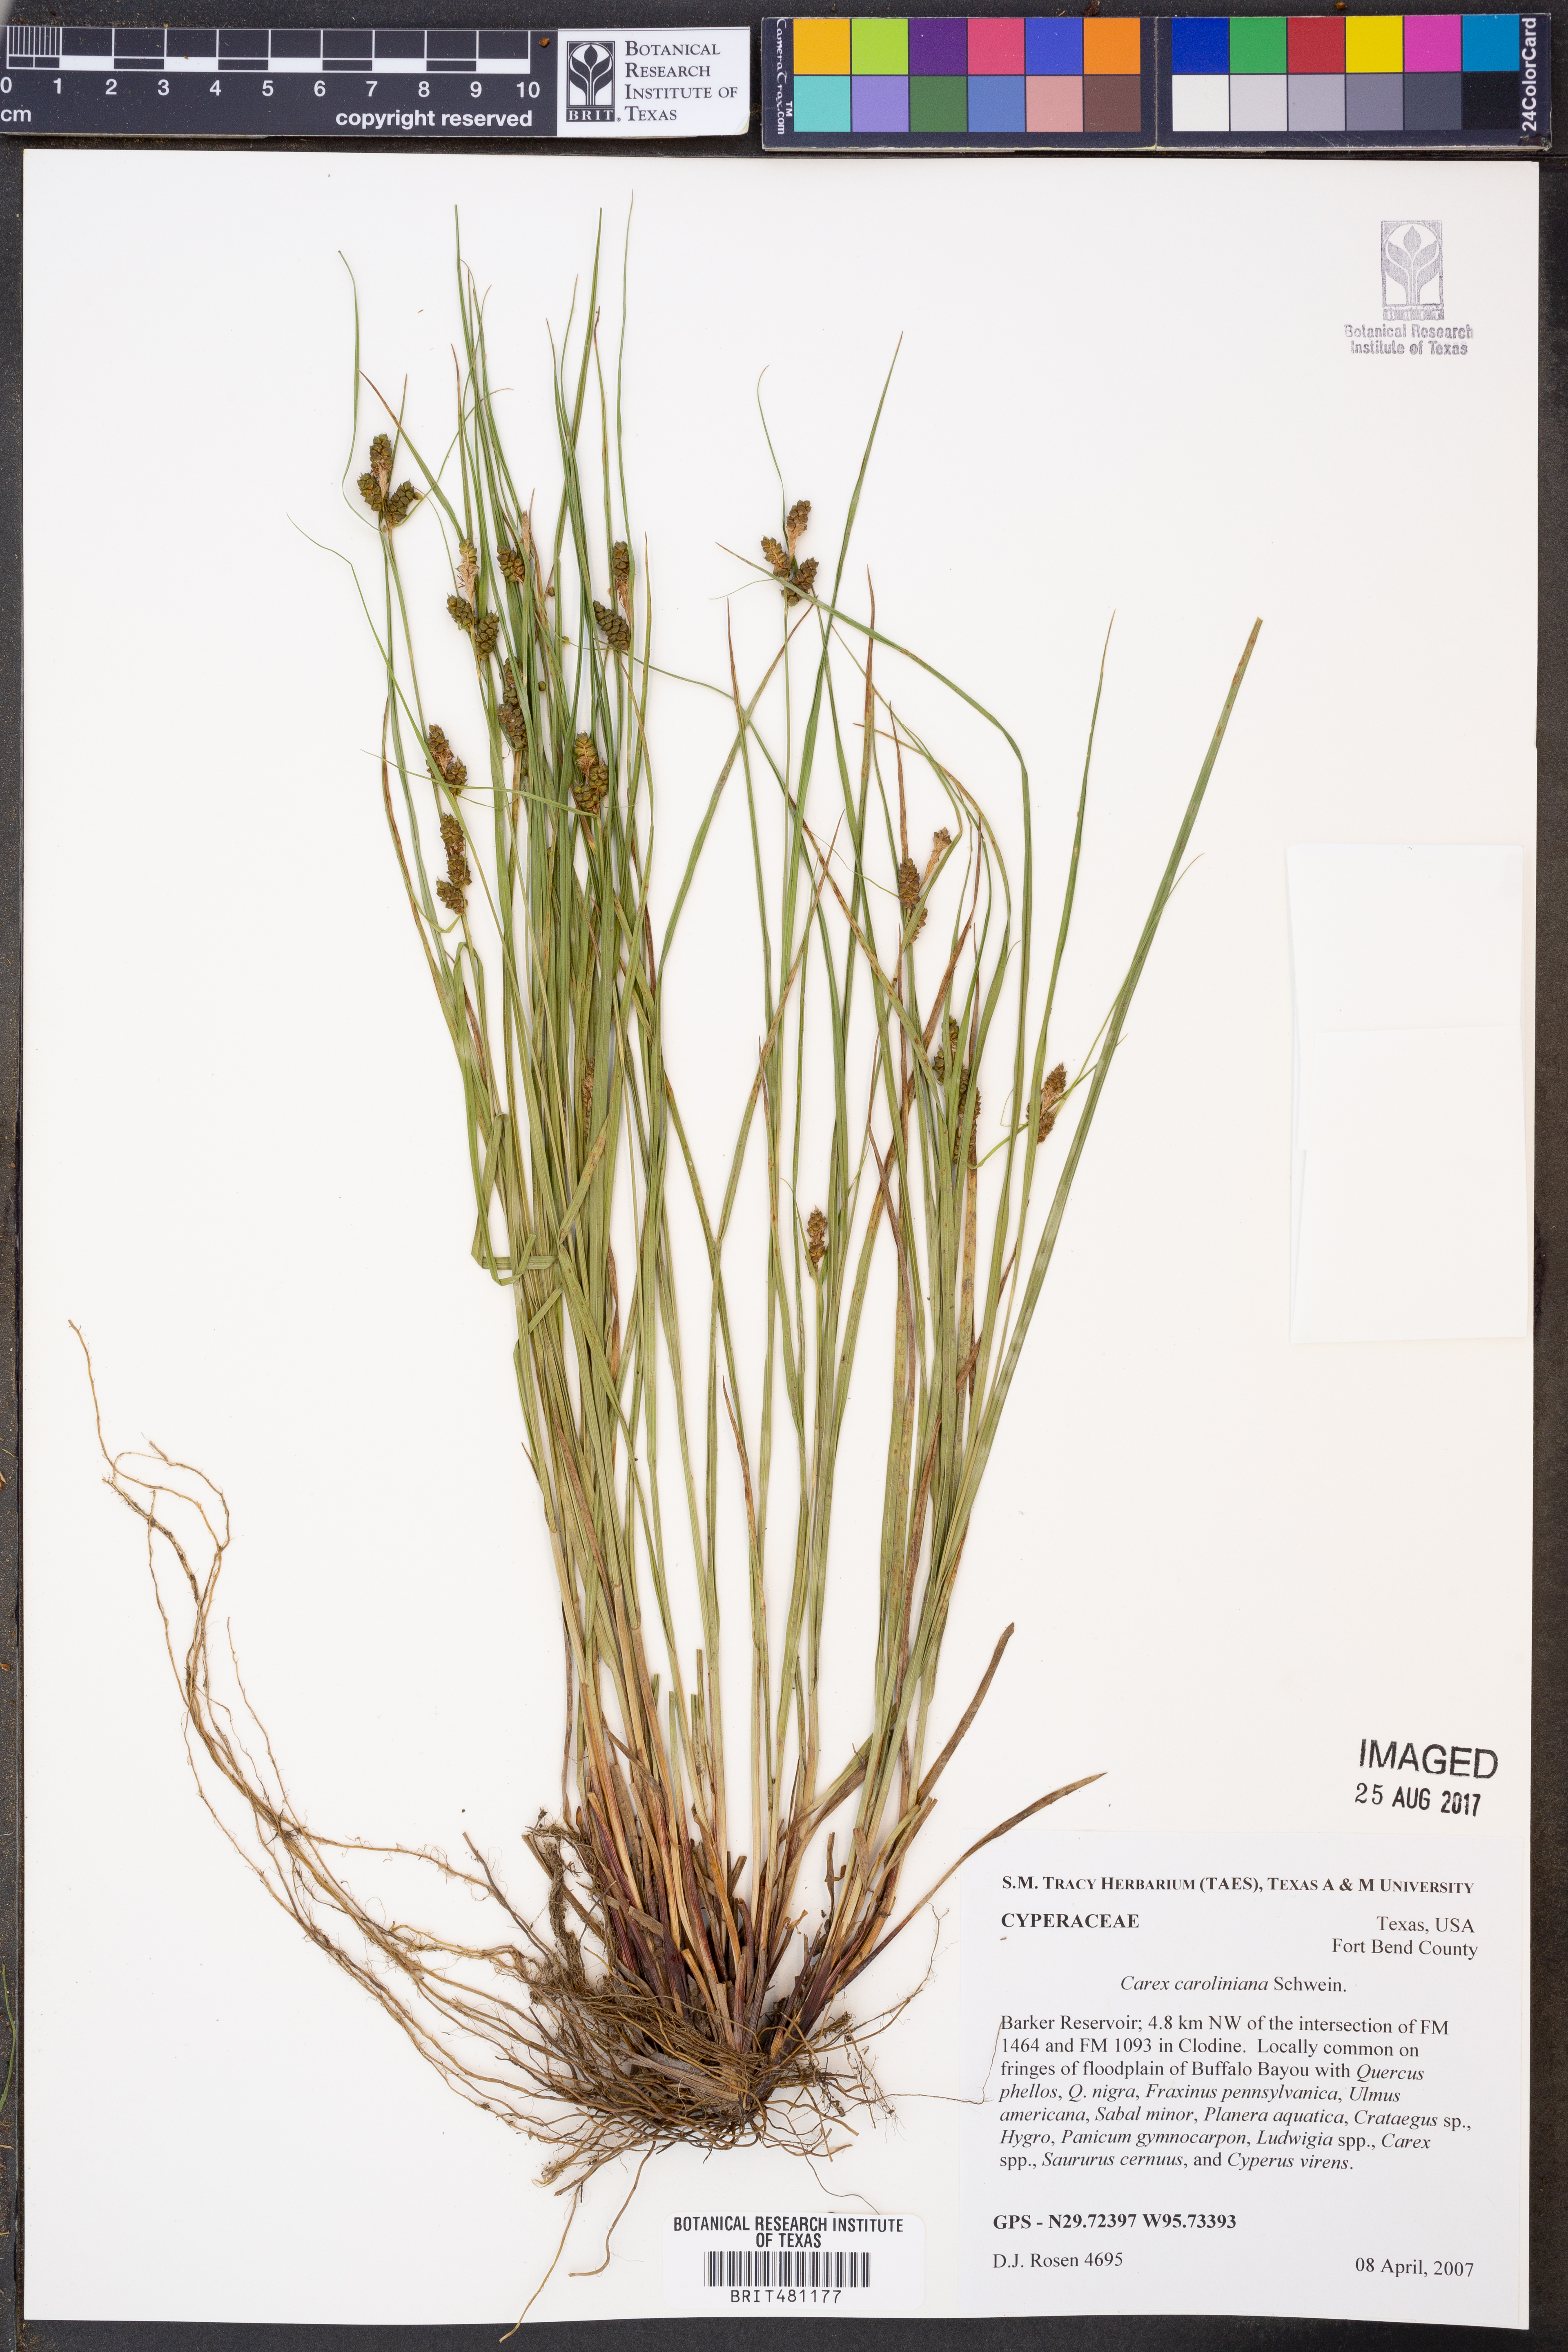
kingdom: Plantae
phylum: Tracheophyta
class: Liliopsida
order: Poales
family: Cyperaceae
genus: Carex
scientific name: Carex caroliniana
